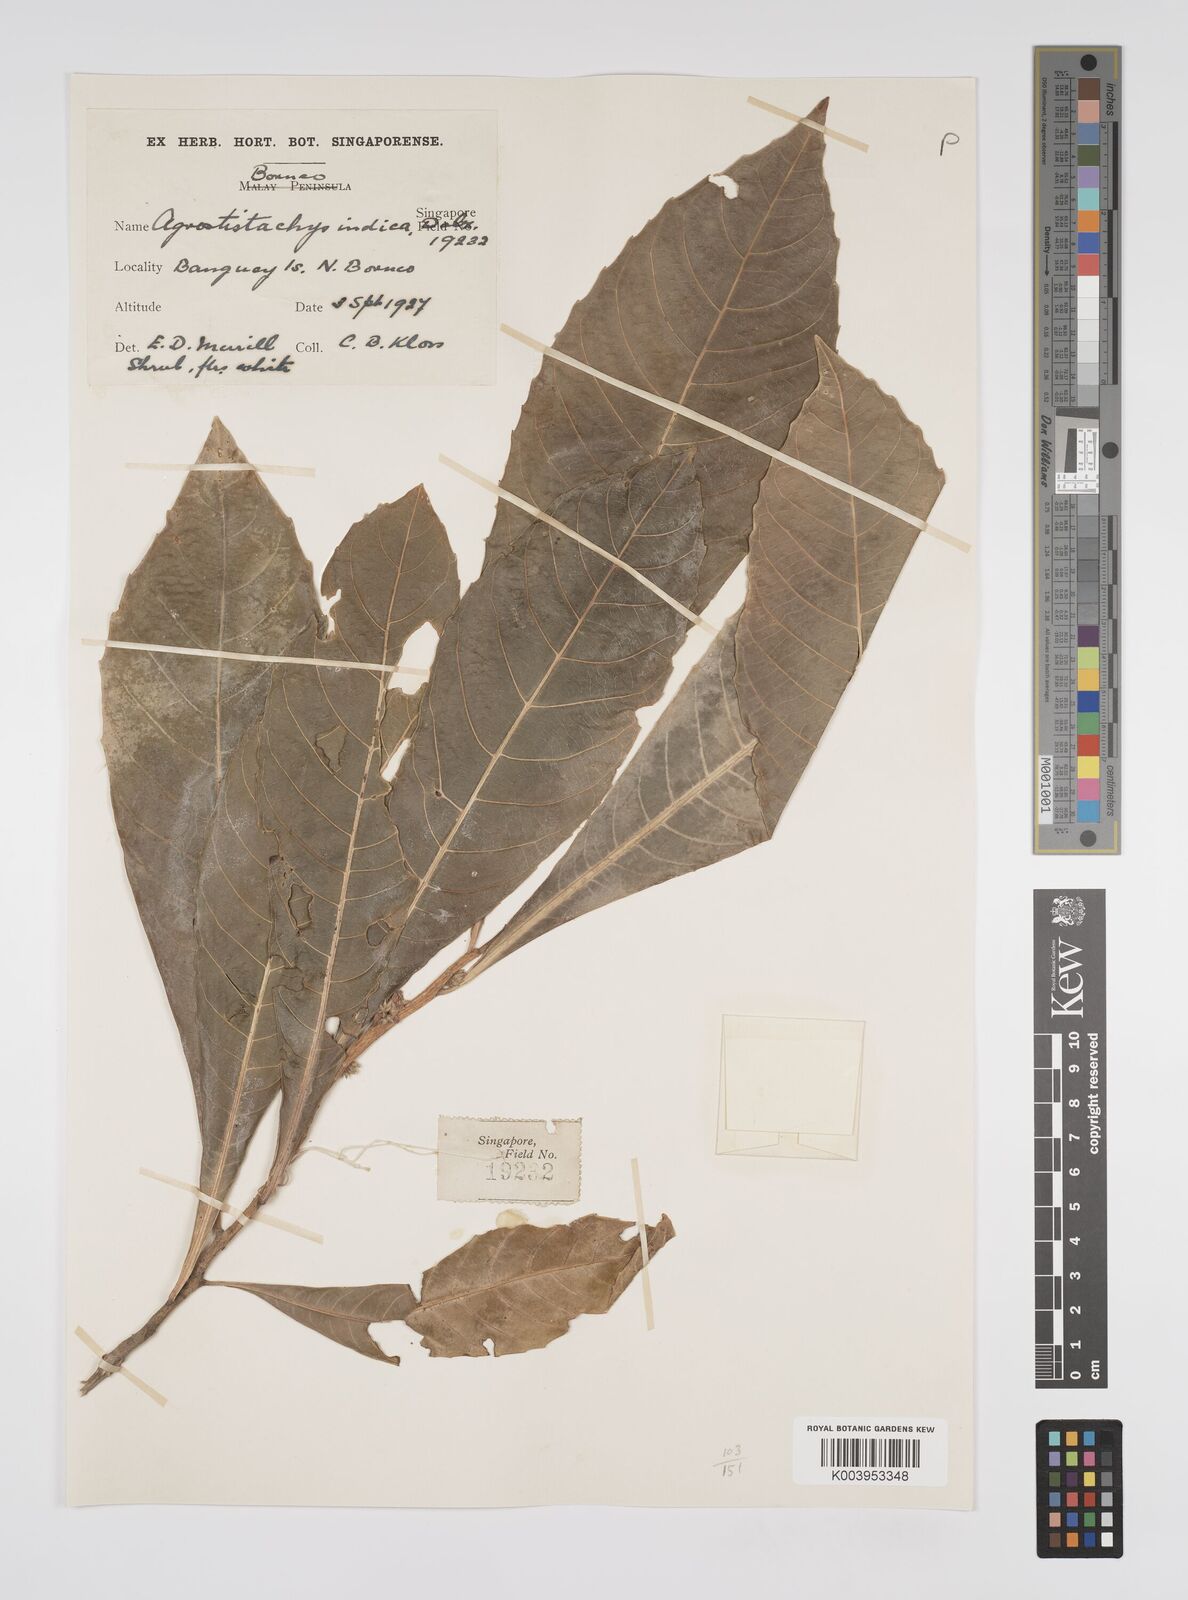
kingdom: Plantae
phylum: Tracheophyta
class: Magnoliopsida
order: Malpighiales
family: Euphorbiaceae
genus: Agrostistachys
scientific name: Agrostistachys indica
